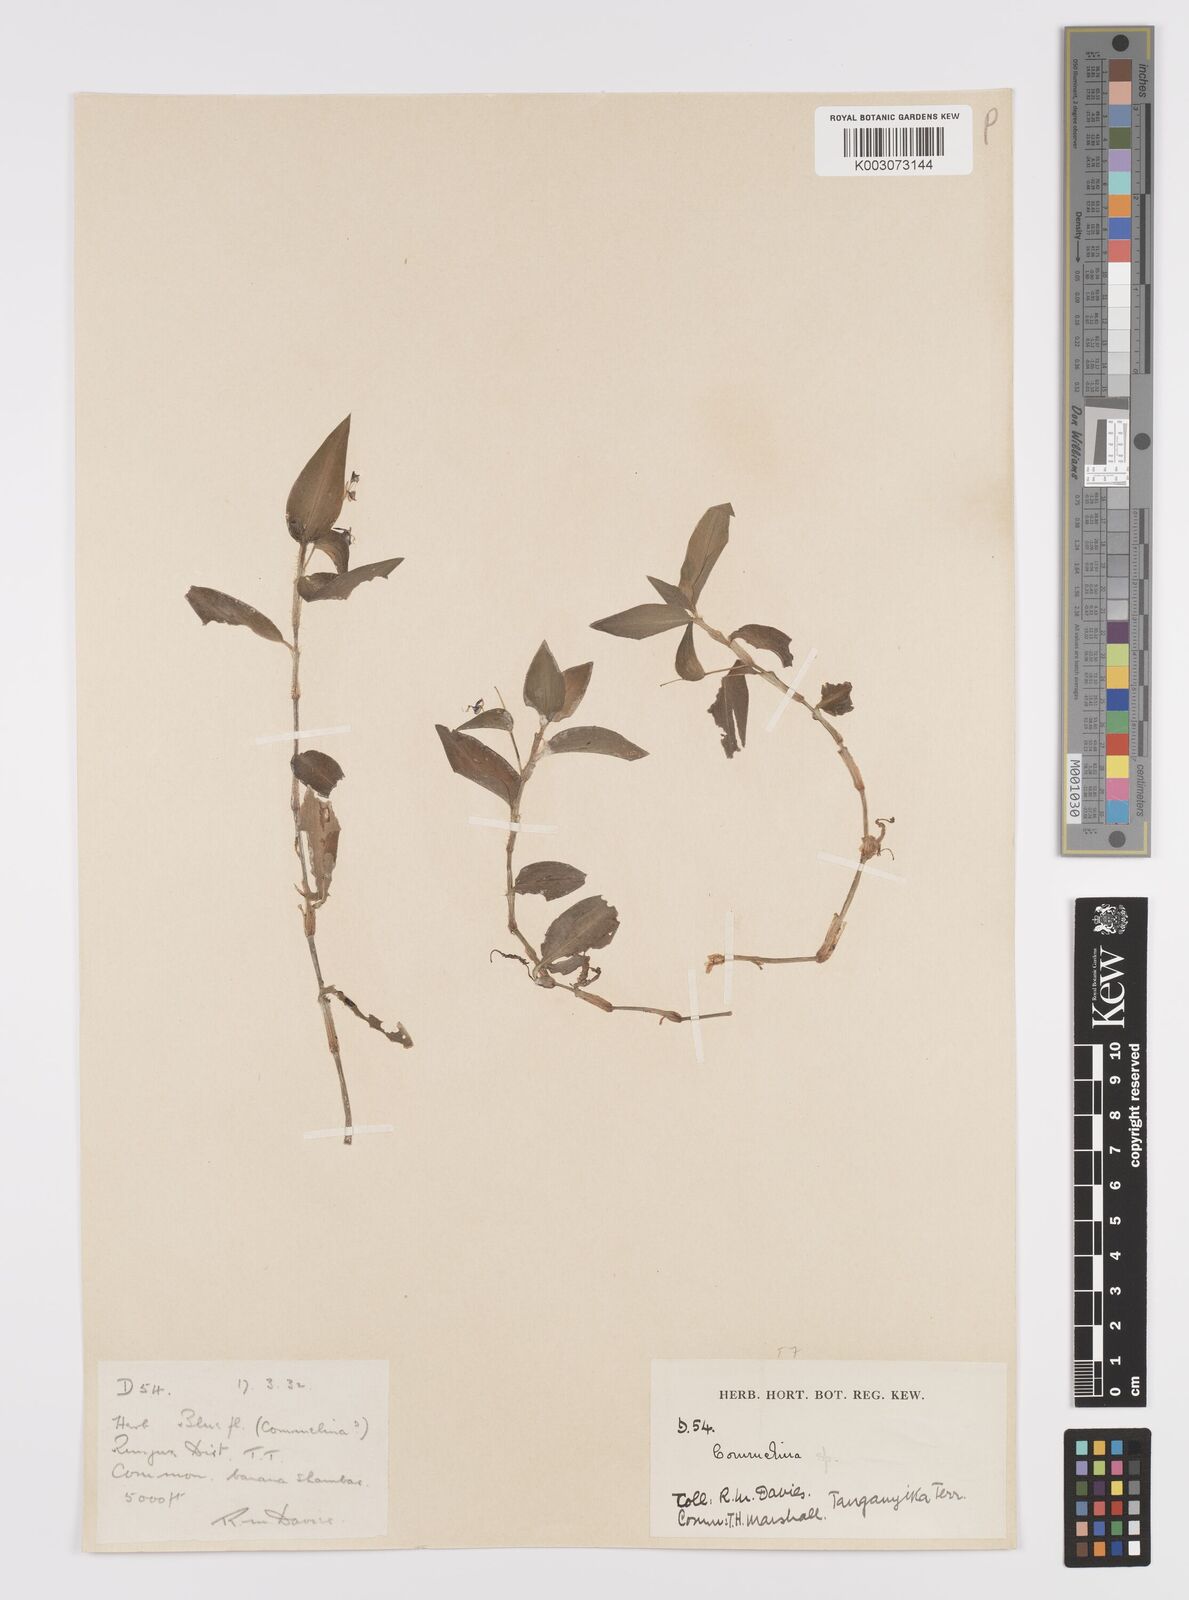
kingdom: Plantae
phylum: Tracheophyta
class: Liliopsida
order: Commelinales
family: Commelinaceae
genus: Commelina
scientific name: Commelina diffusa
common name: Climbing dayflower
